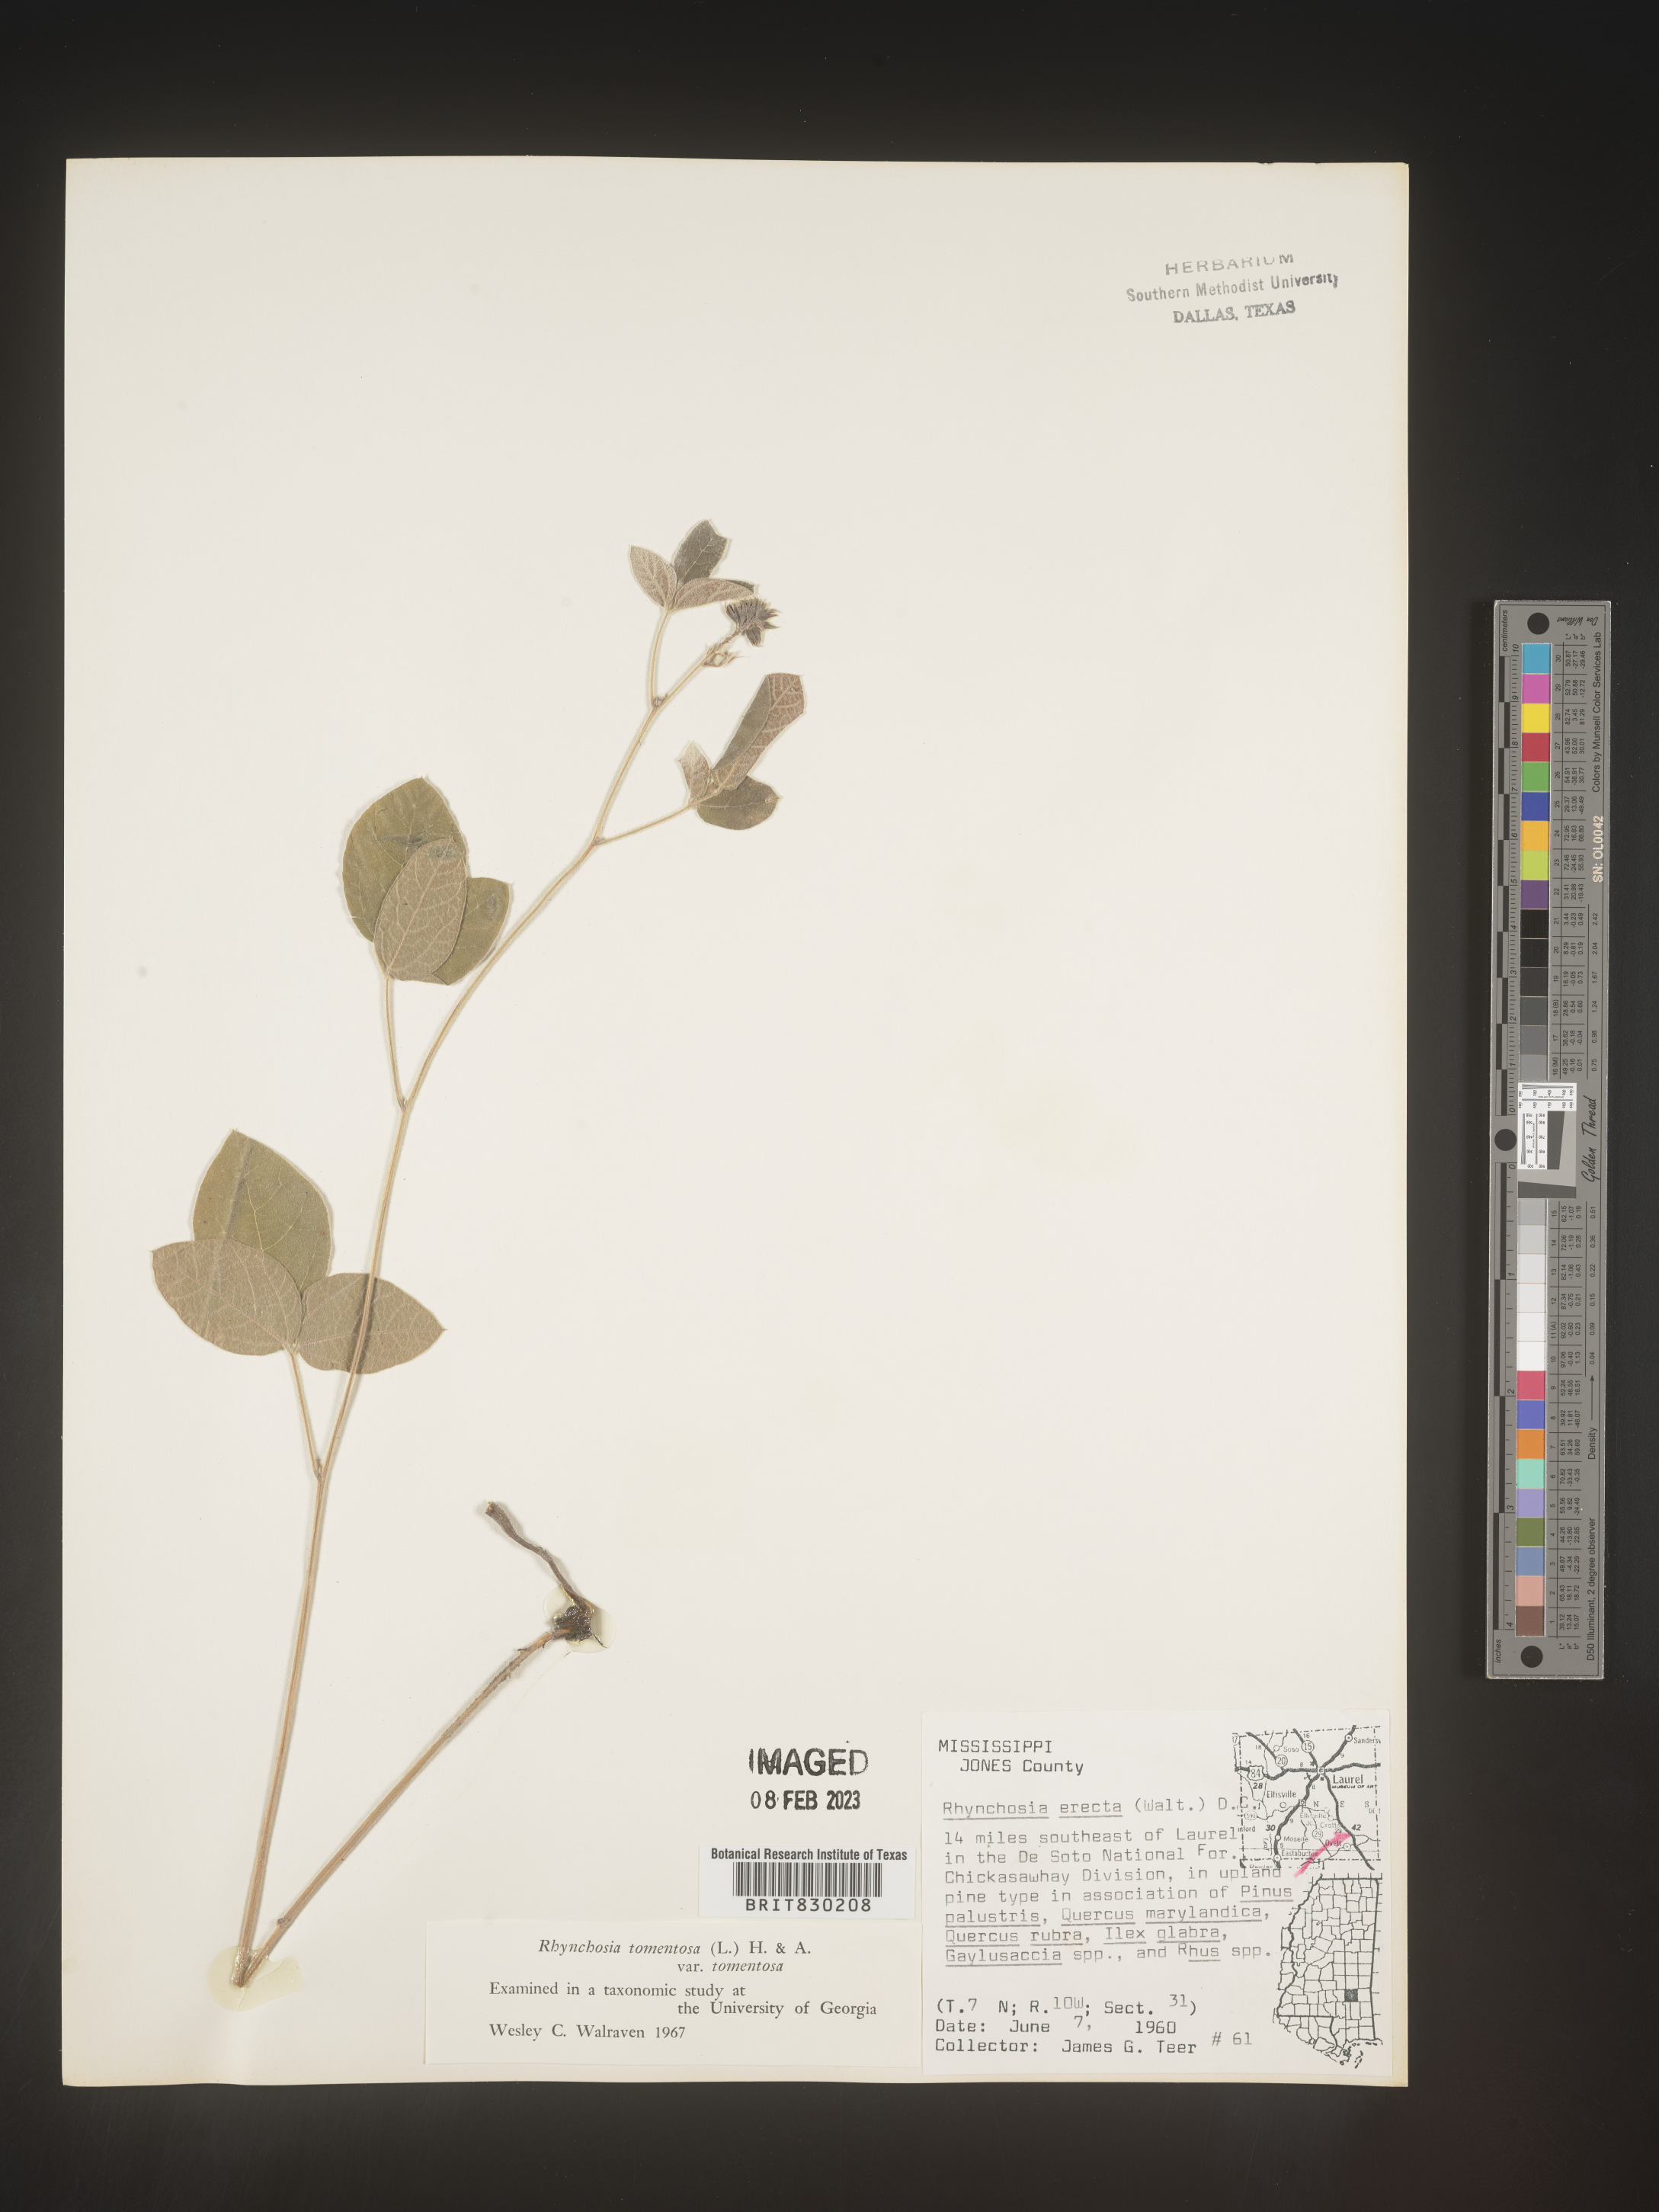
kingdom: Plantae
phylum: Tracheophyta
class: Magnoliopsida
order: Fabales
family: Fabaceae
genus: Rhynchosia
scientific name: Rhynchosia rothii
